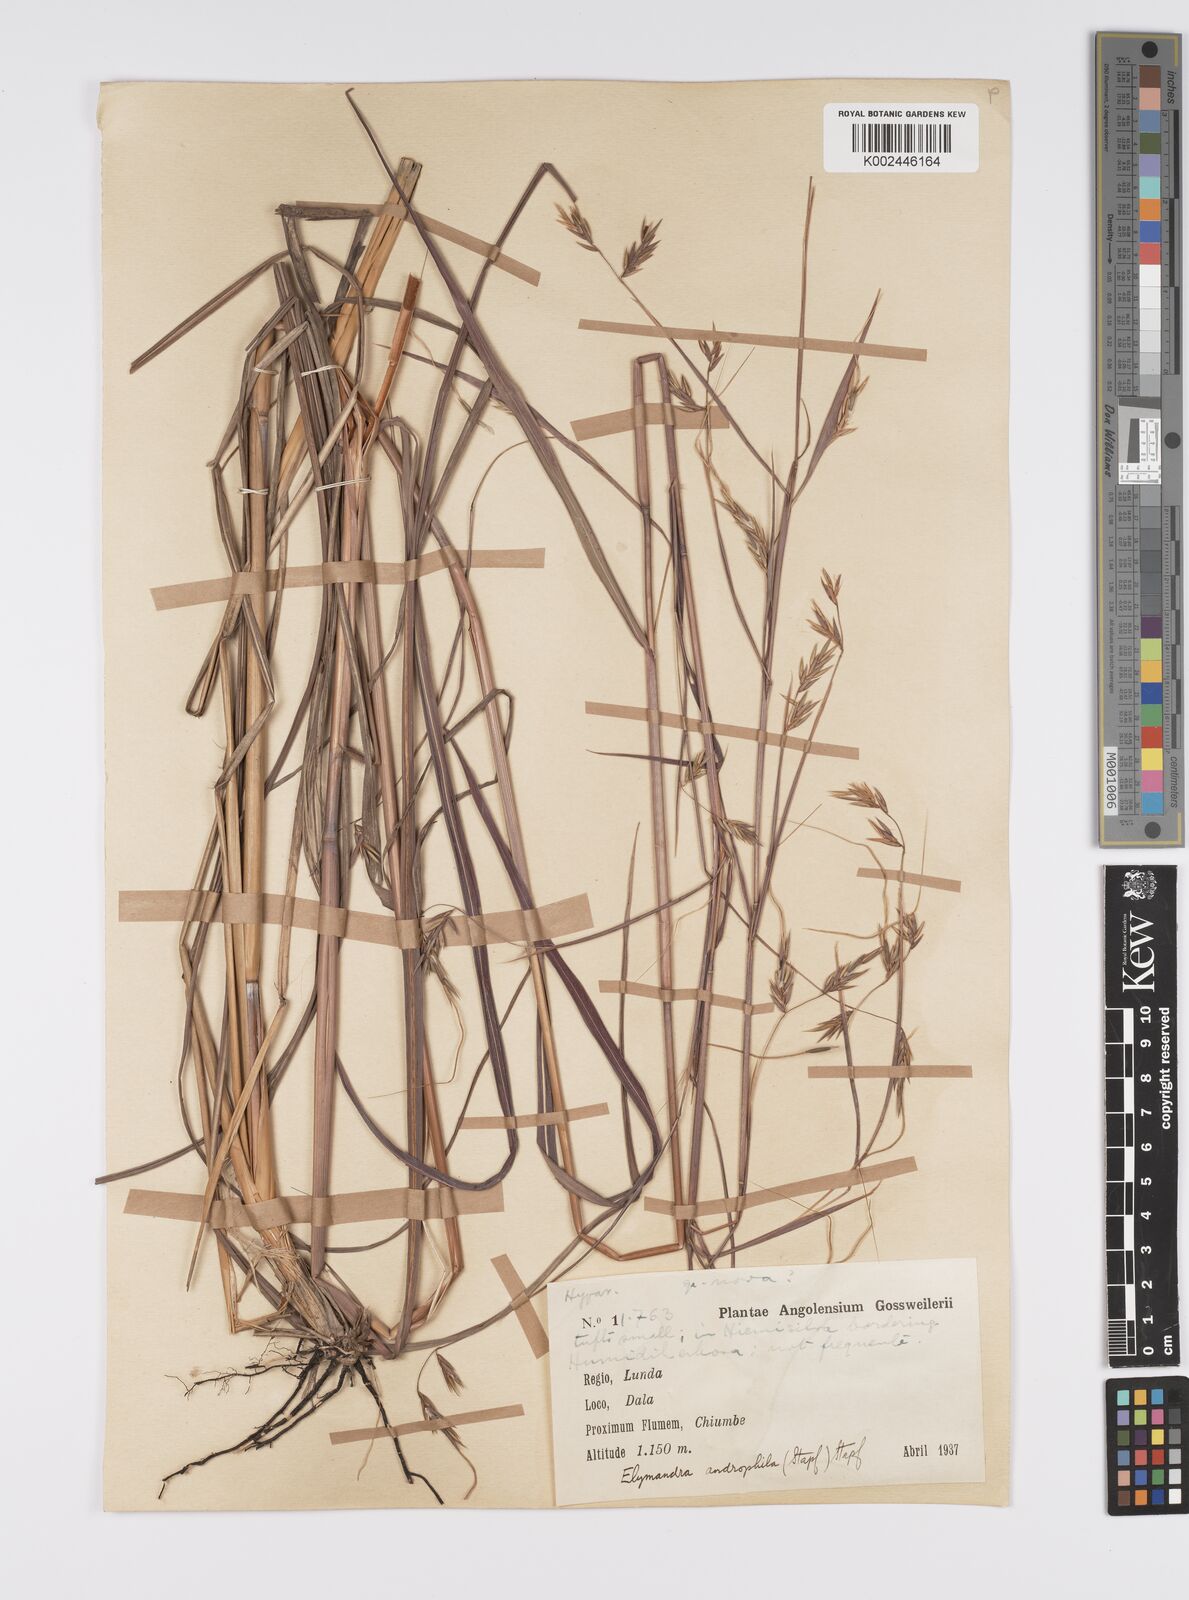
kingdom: Plantae
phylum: Tracheophyta
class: Liliopsida
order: Poales
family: Poaceae
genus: Elymandra
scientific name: Elymandra androphila
